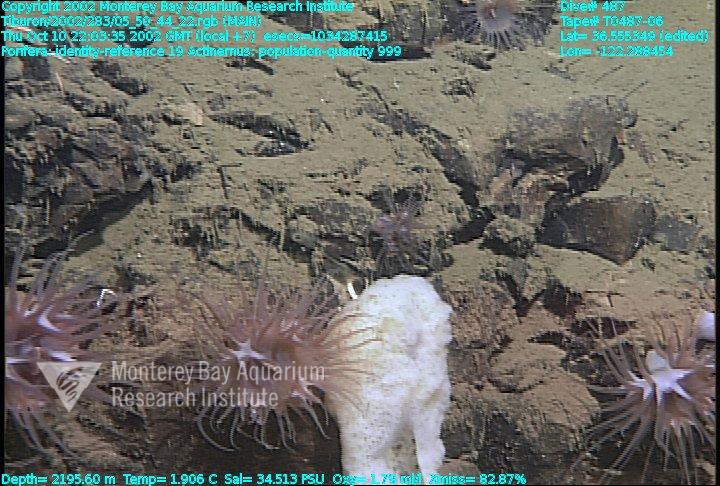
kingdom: Animalia
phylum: Porifera
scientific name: Porifera
